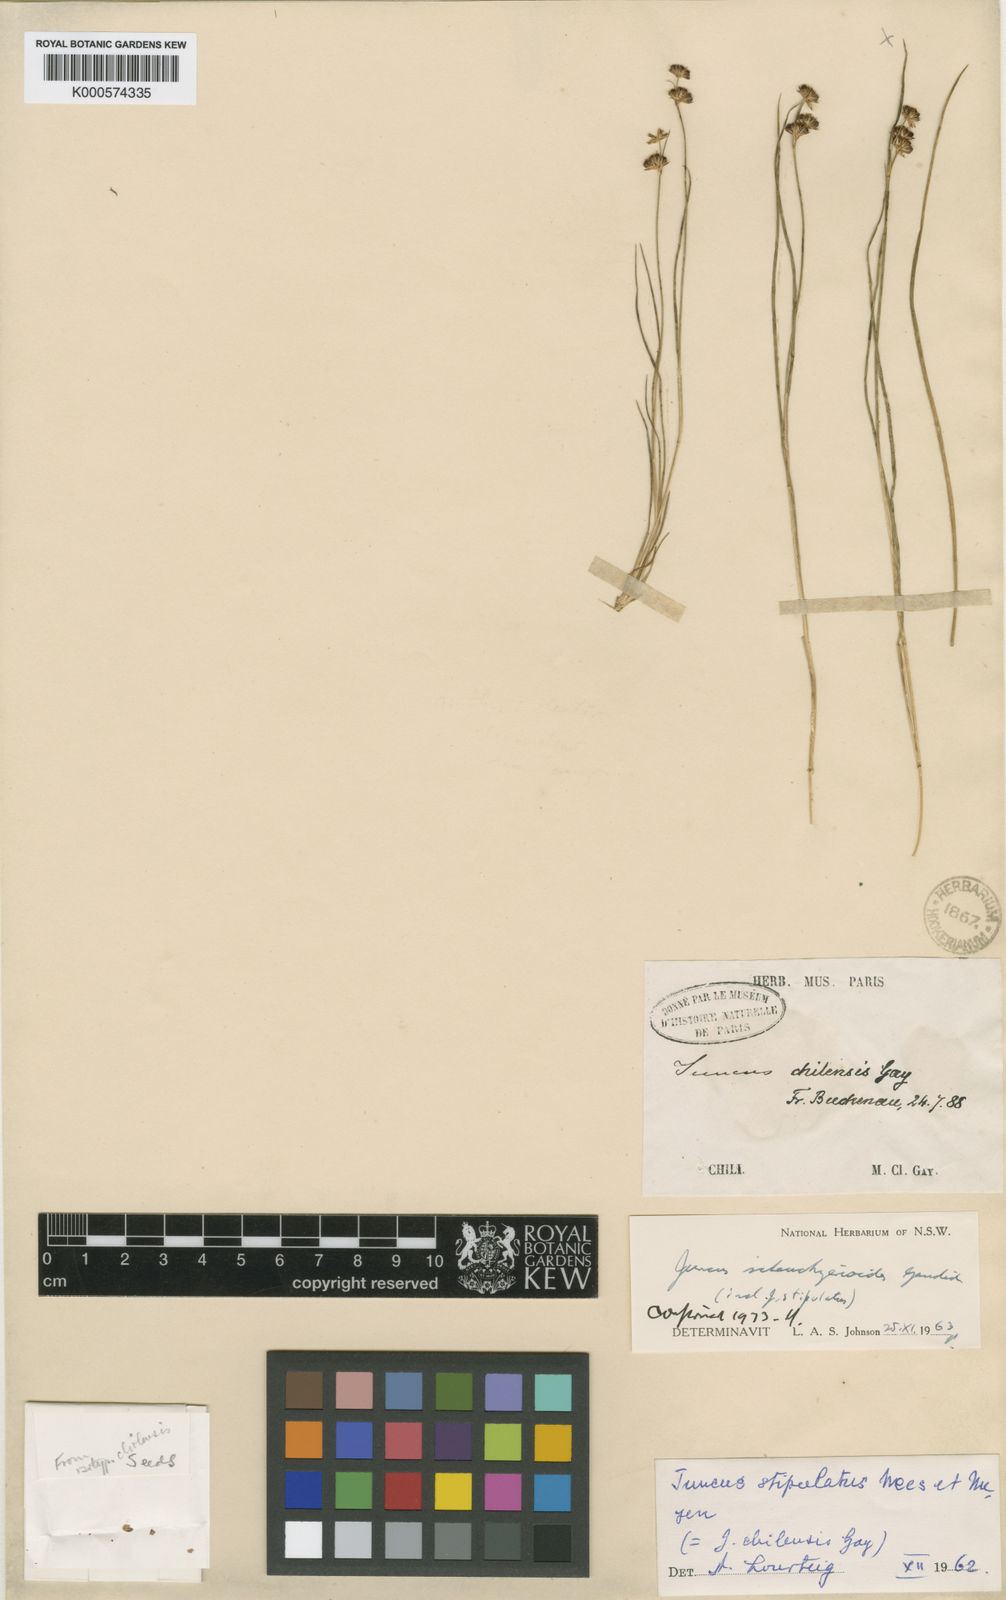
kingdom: Plantae
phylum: Tracheophyta
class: Liliopsida
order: Poales
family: Juncaceae
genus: Juncus
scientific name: Juncus scheuchzerioides
